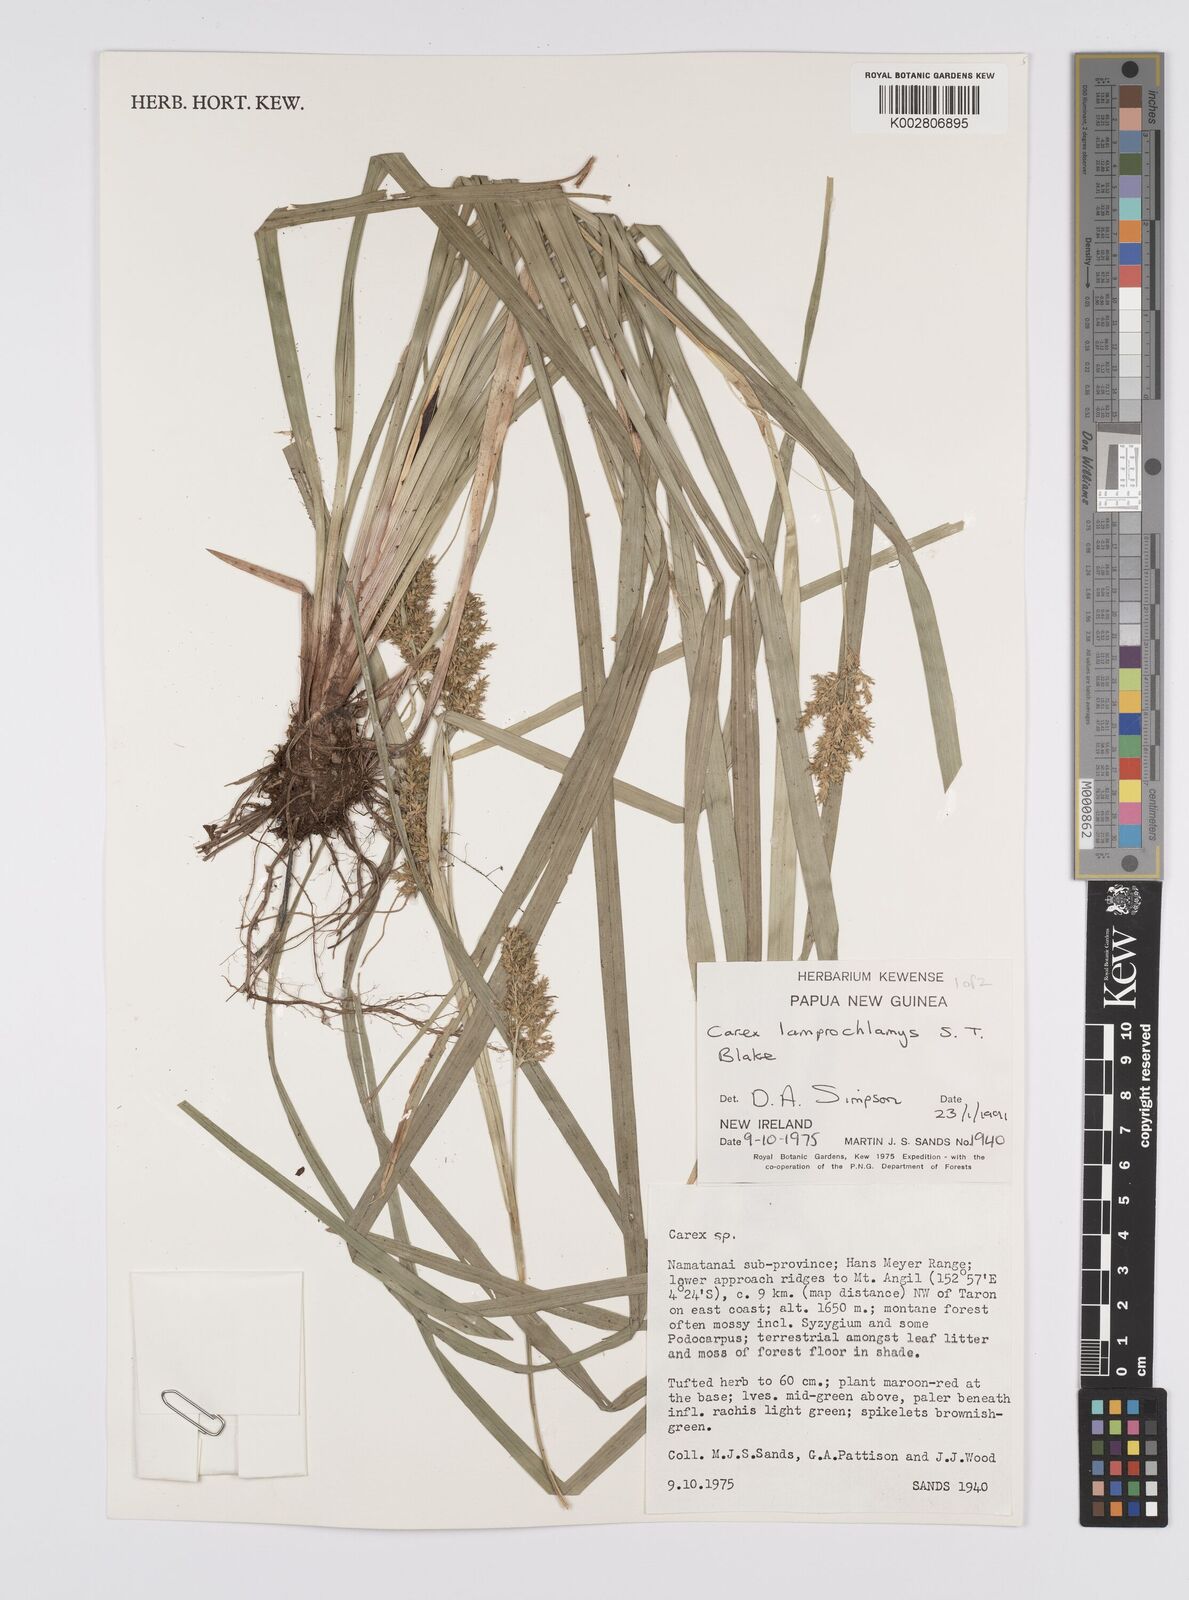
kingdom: Plantae
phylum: Tracheophyta
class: Liliopsida
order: Poales
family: Cyperaceae
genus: Carex
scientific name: Carex lamprochlamys
